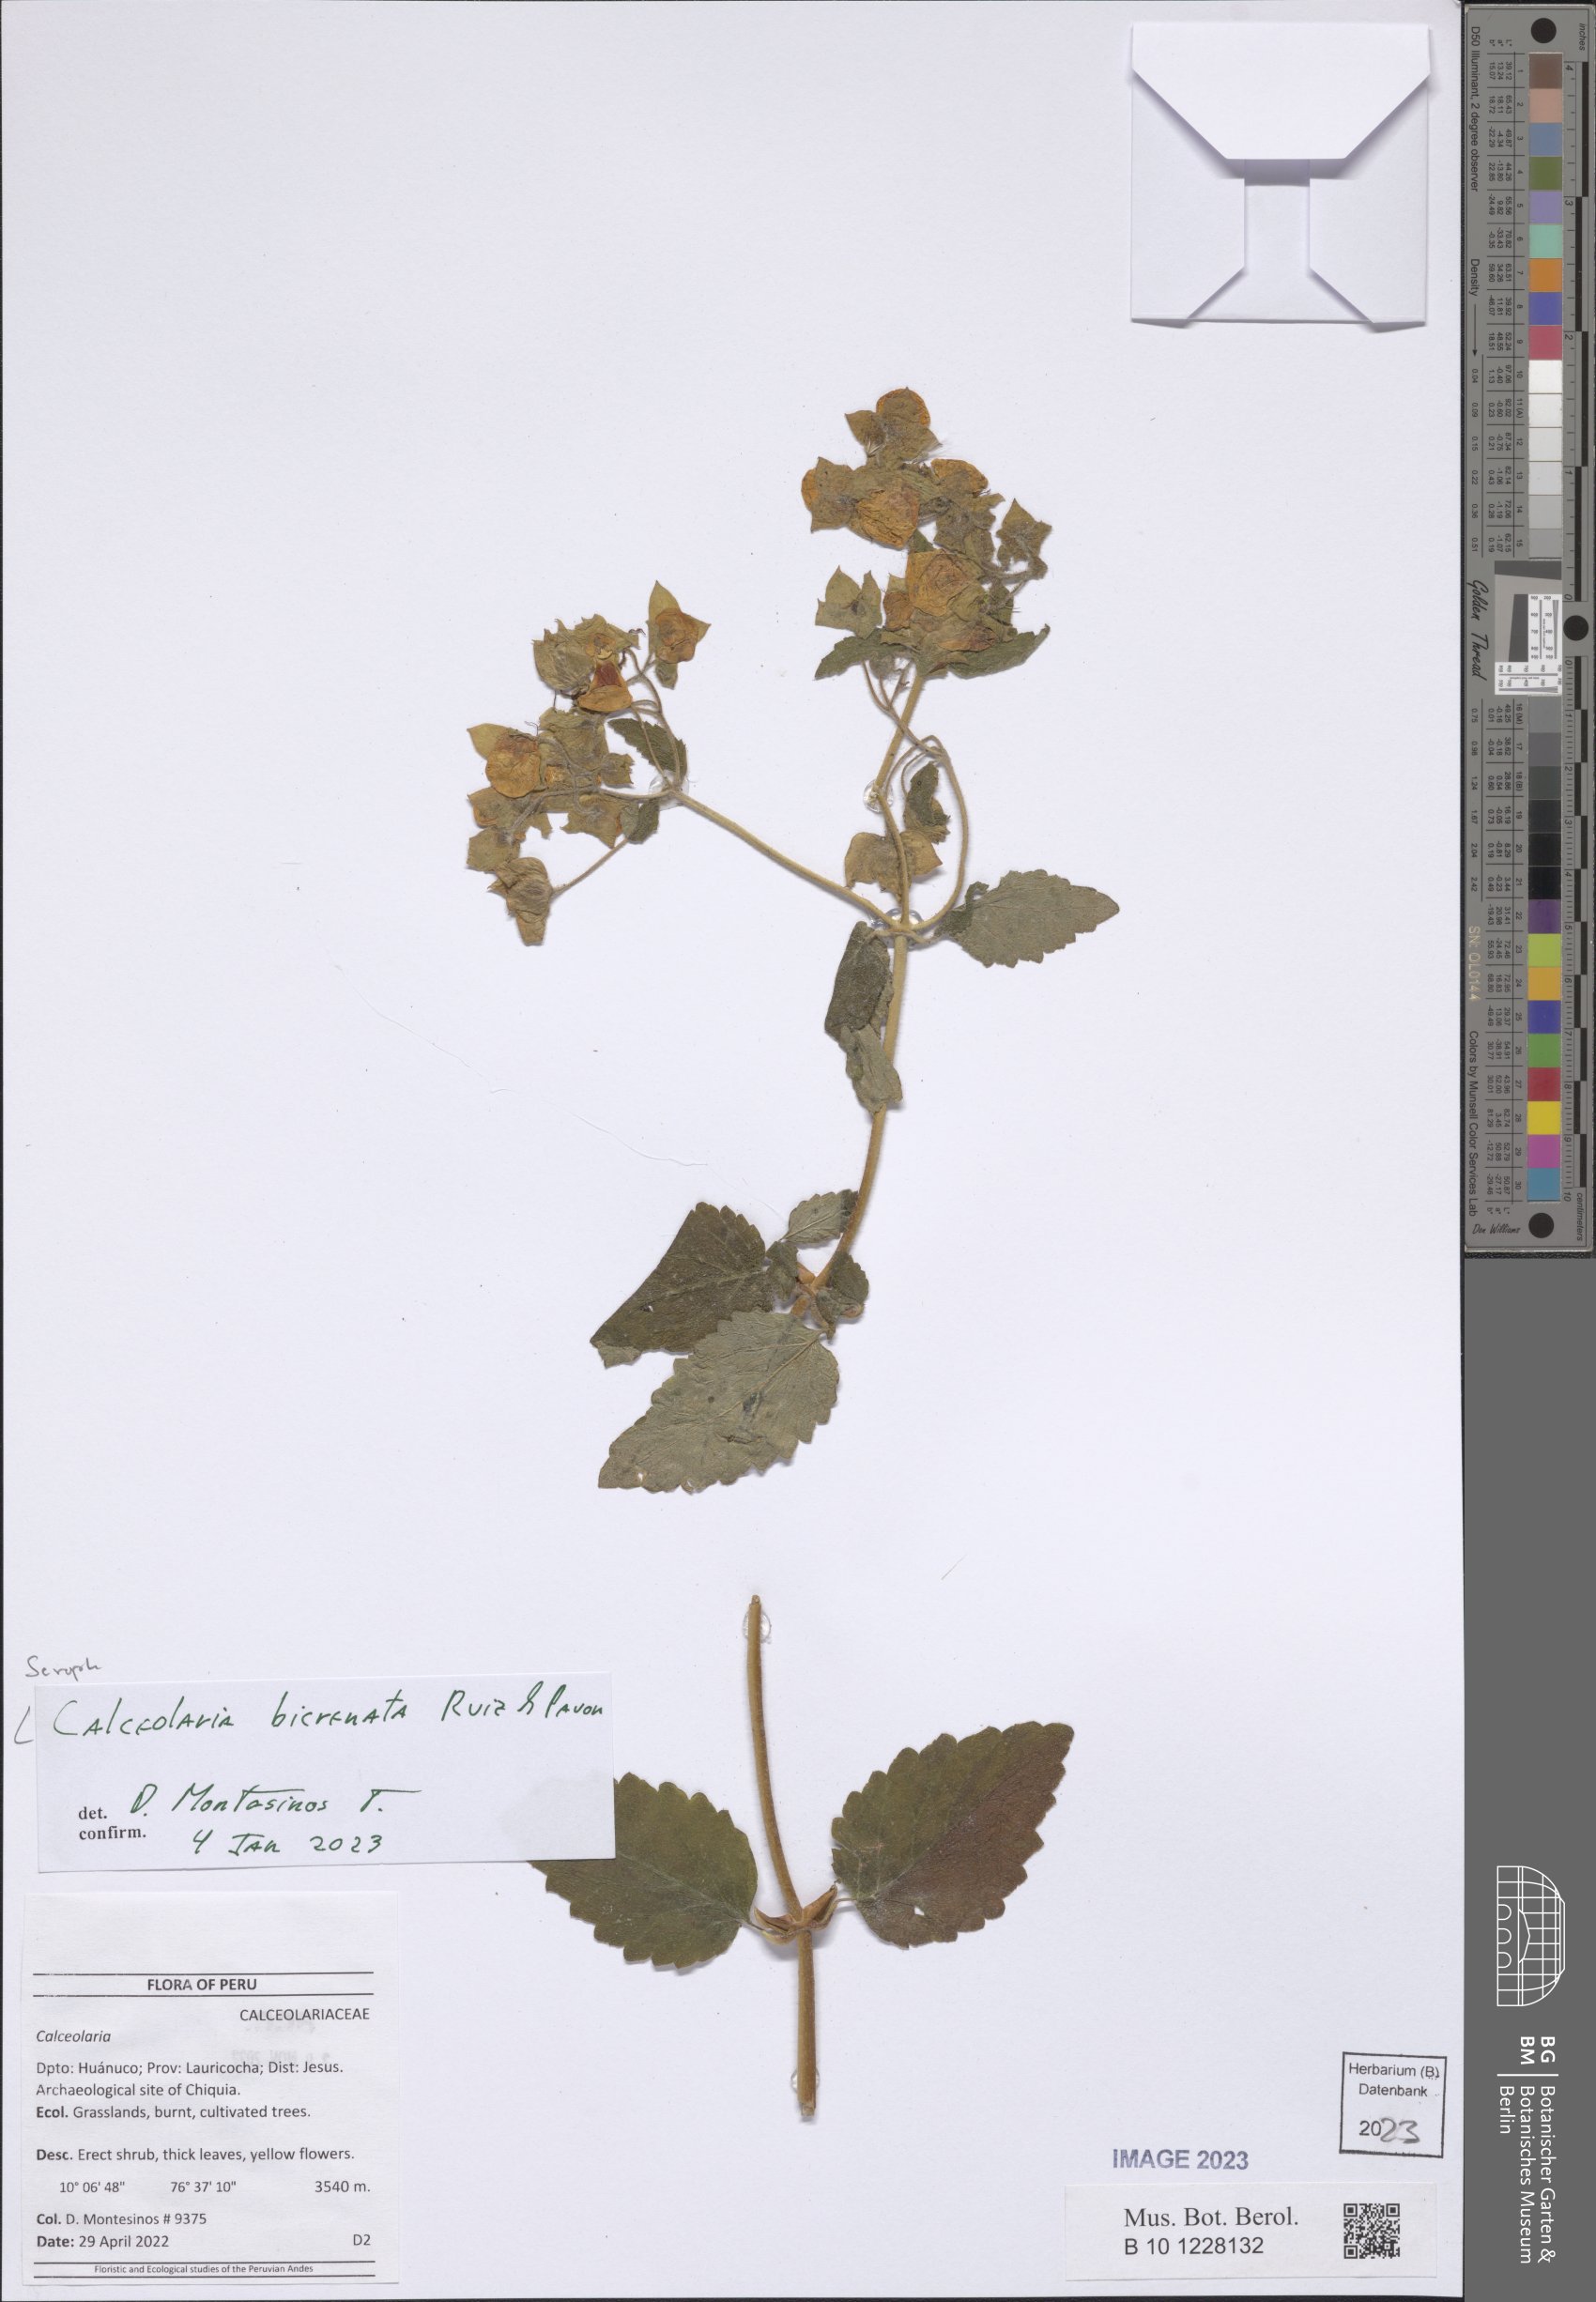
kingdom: Plantae
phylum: Tracheophyta
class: Magnoliopsida
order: Lamiales
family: Calceolariaceae
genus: Calceolaria
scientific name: Calceolaria bicrenata
